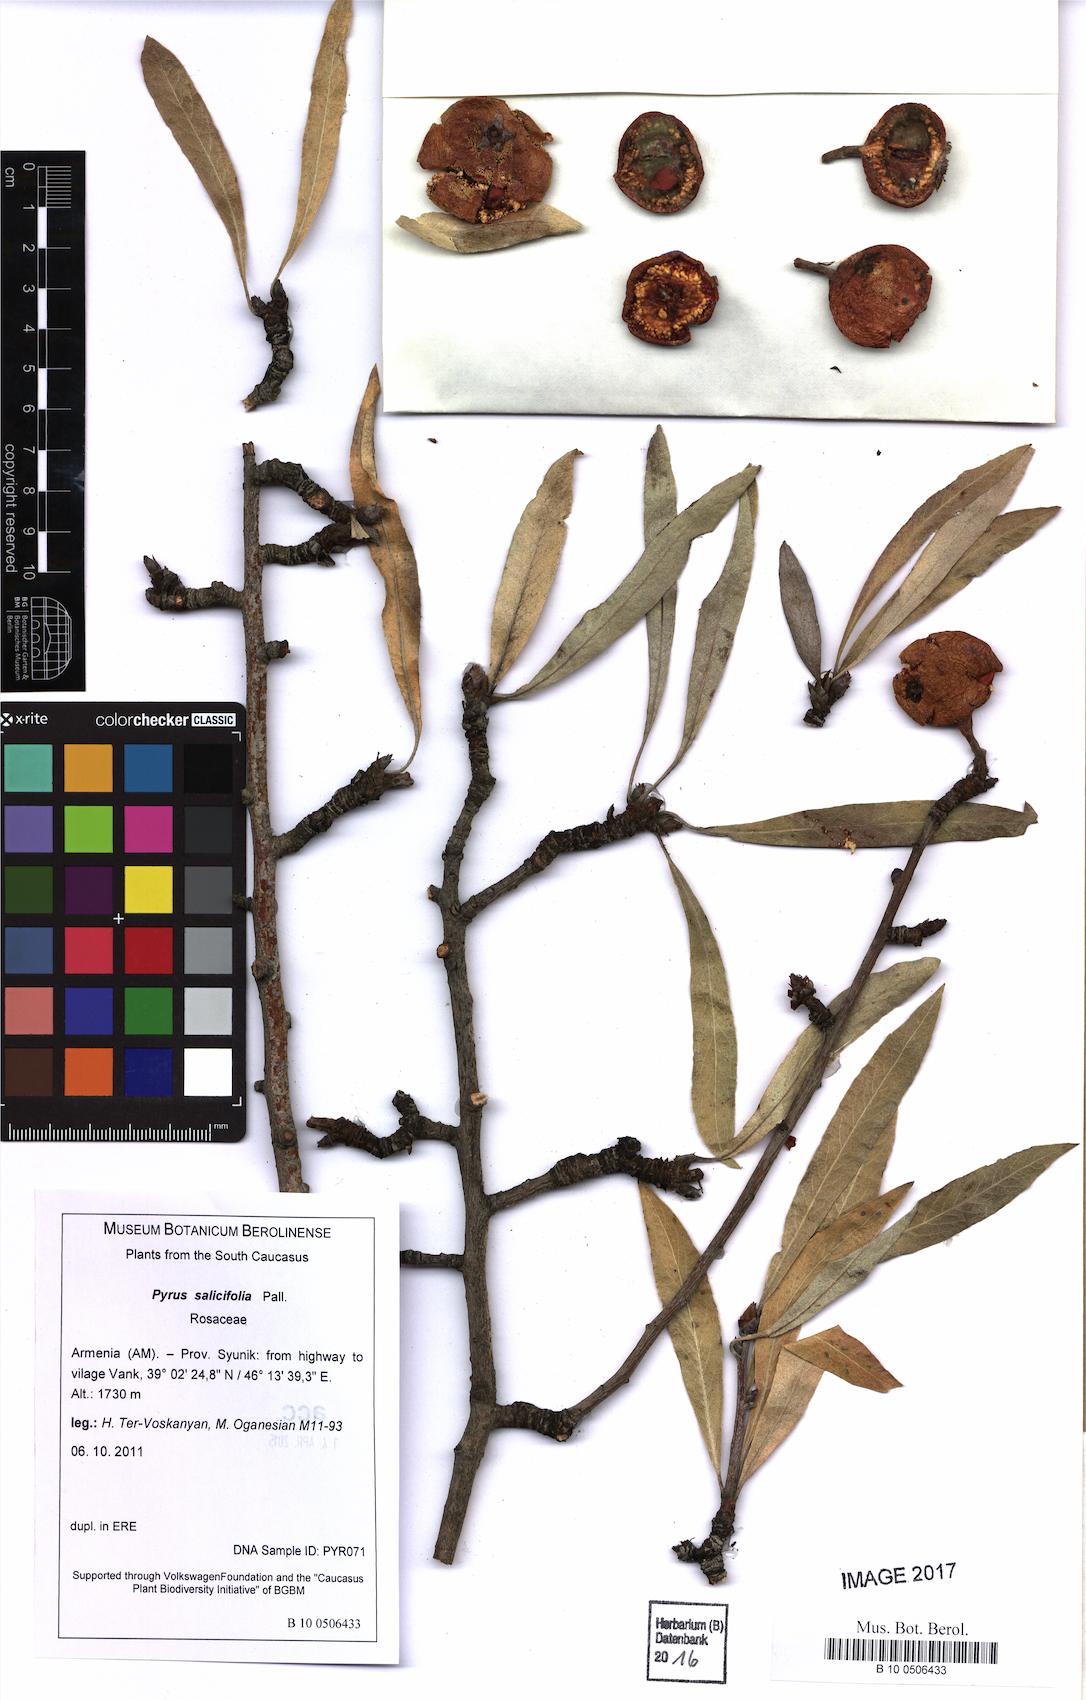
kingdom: Plantae
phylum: Tracheophyta
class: Magnoliopsida
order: Rosales
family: Rosaceae
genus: Pyrus
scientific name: Pyrus salicifolia
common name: Willow-leaved pear
